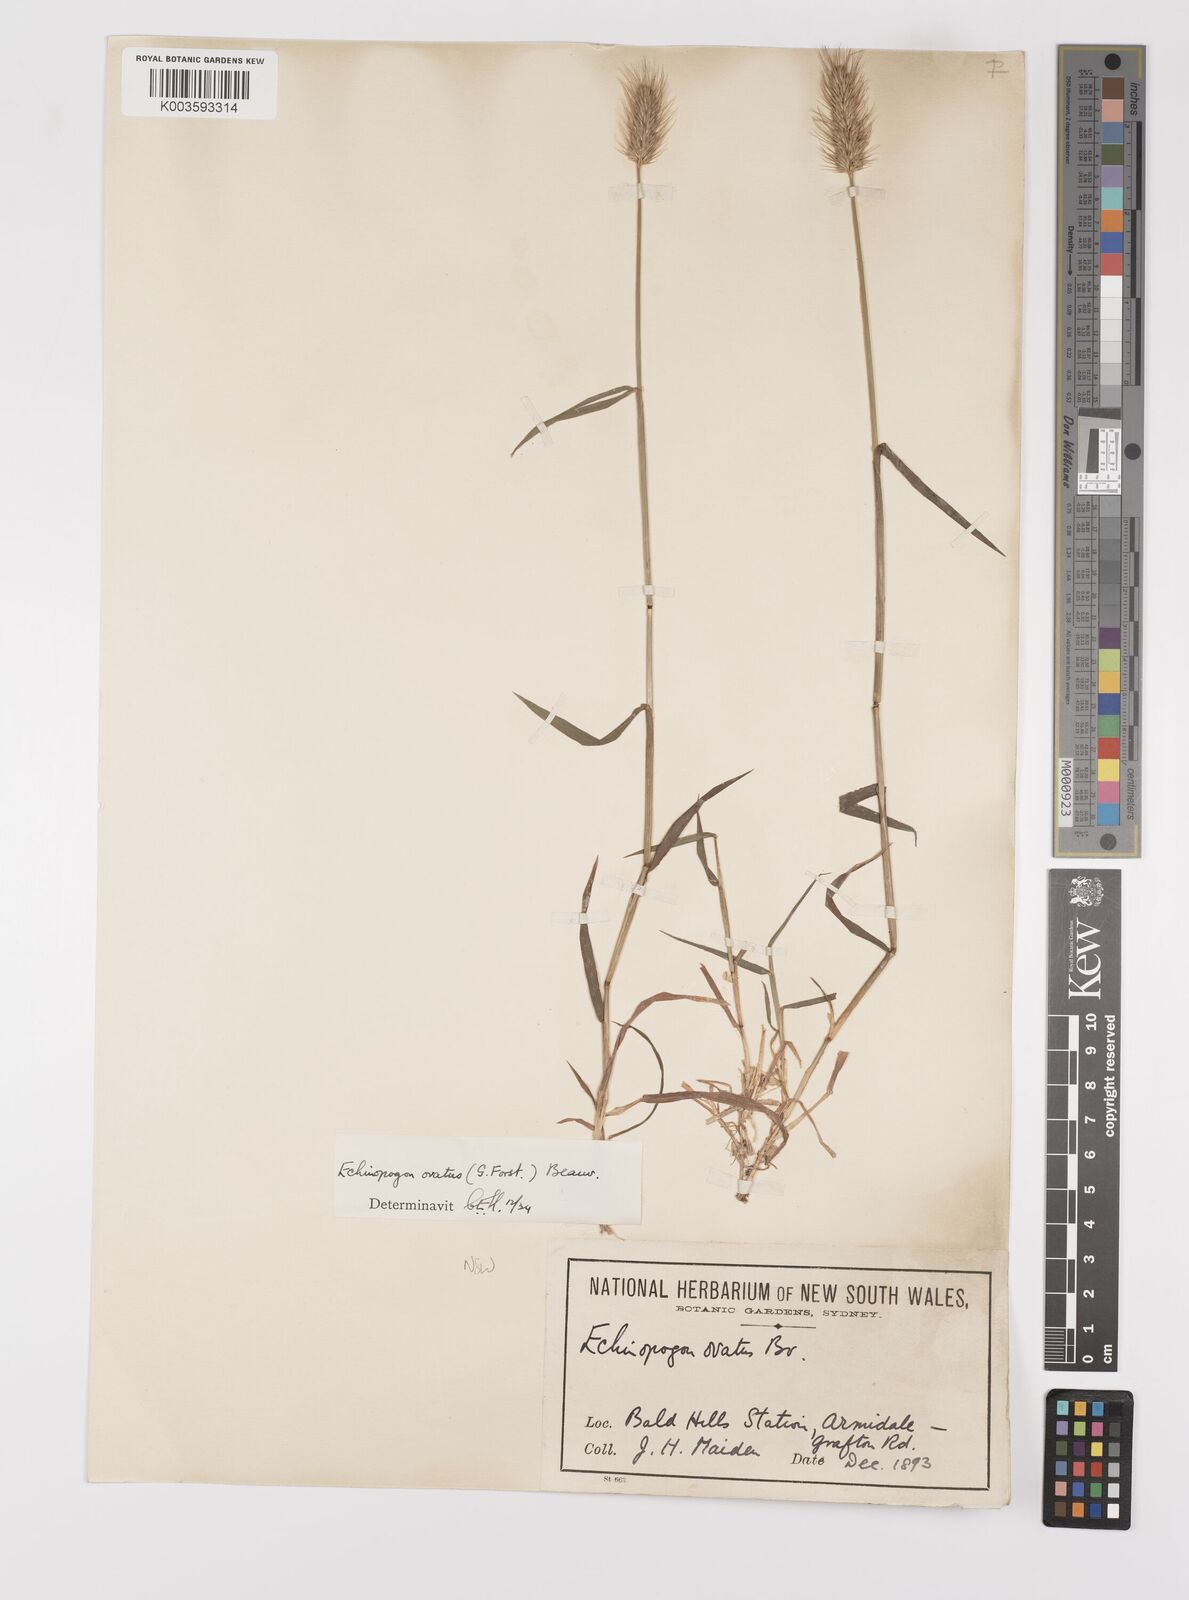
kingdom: Plantae
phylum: Tracheophyta
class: Liliopsida
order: Poales
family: Poaceae
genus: Echinopogon
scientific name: Echinopogon ovatus
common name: Hedgehog-grass
